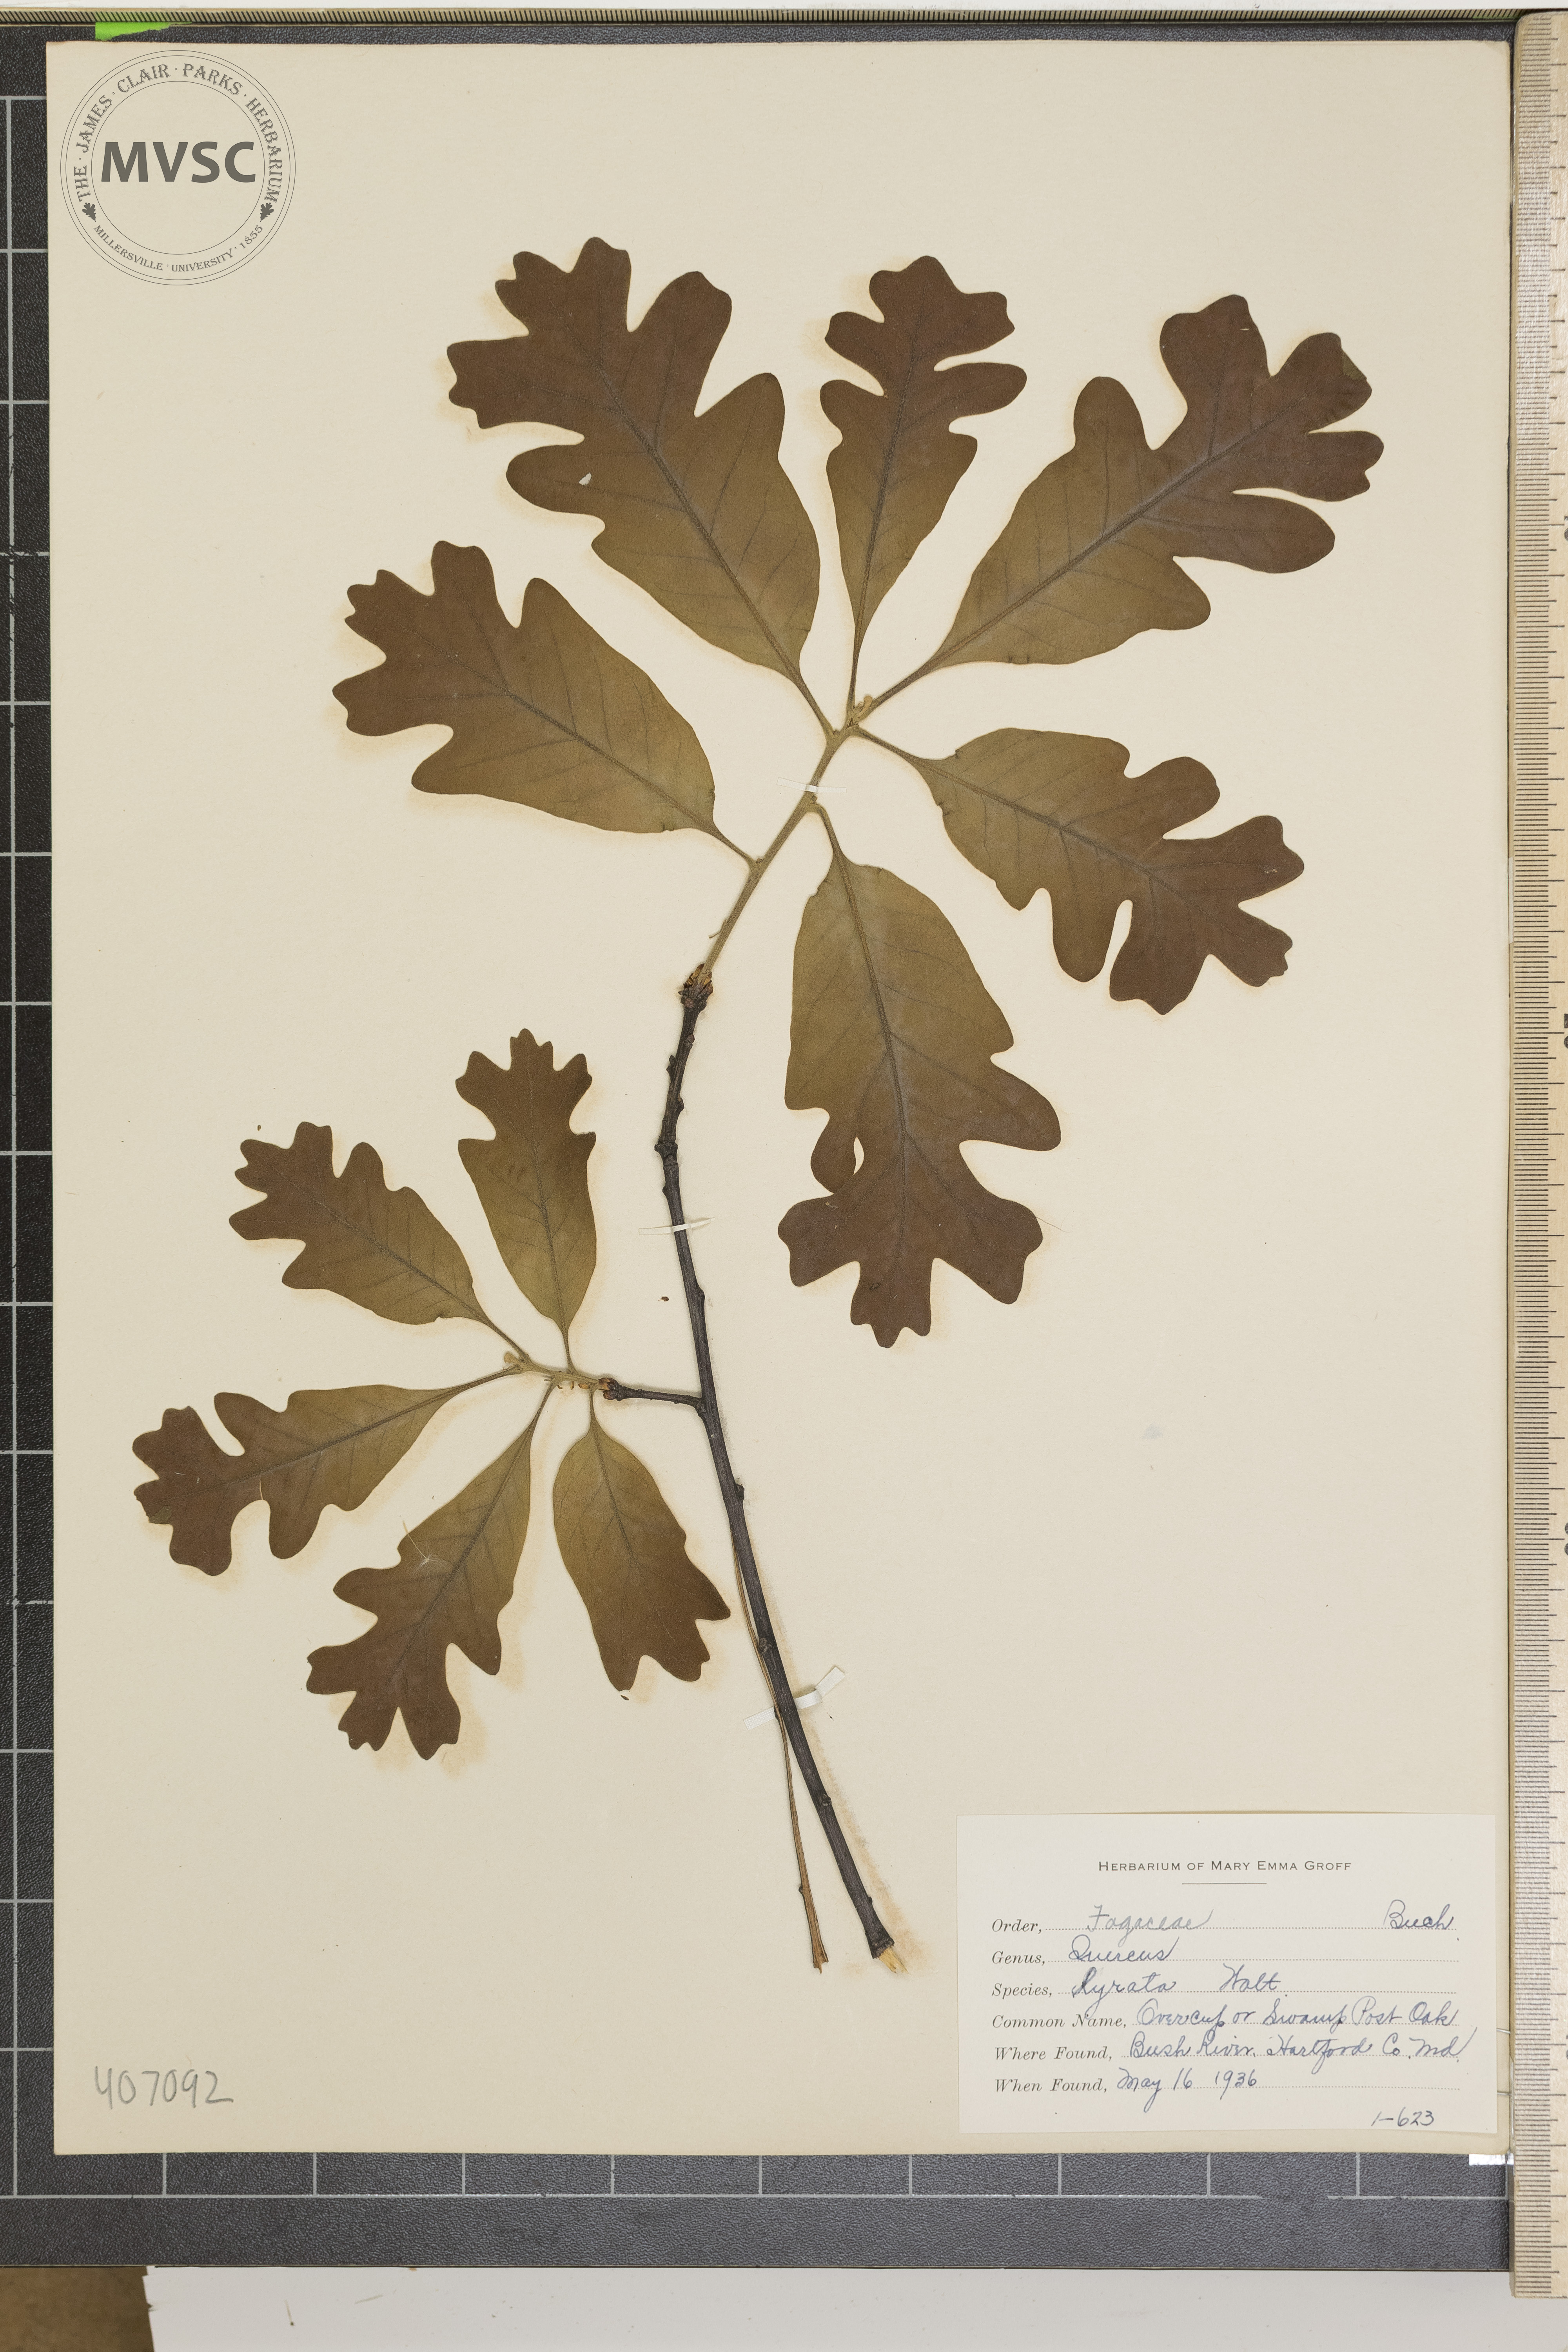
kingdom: Plantae
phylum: Tracheophyta
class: Magnoliopsida
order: Fagales
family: Fagaceae
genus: Quercus
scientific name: Quercus lyrata
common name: Overcup oak
